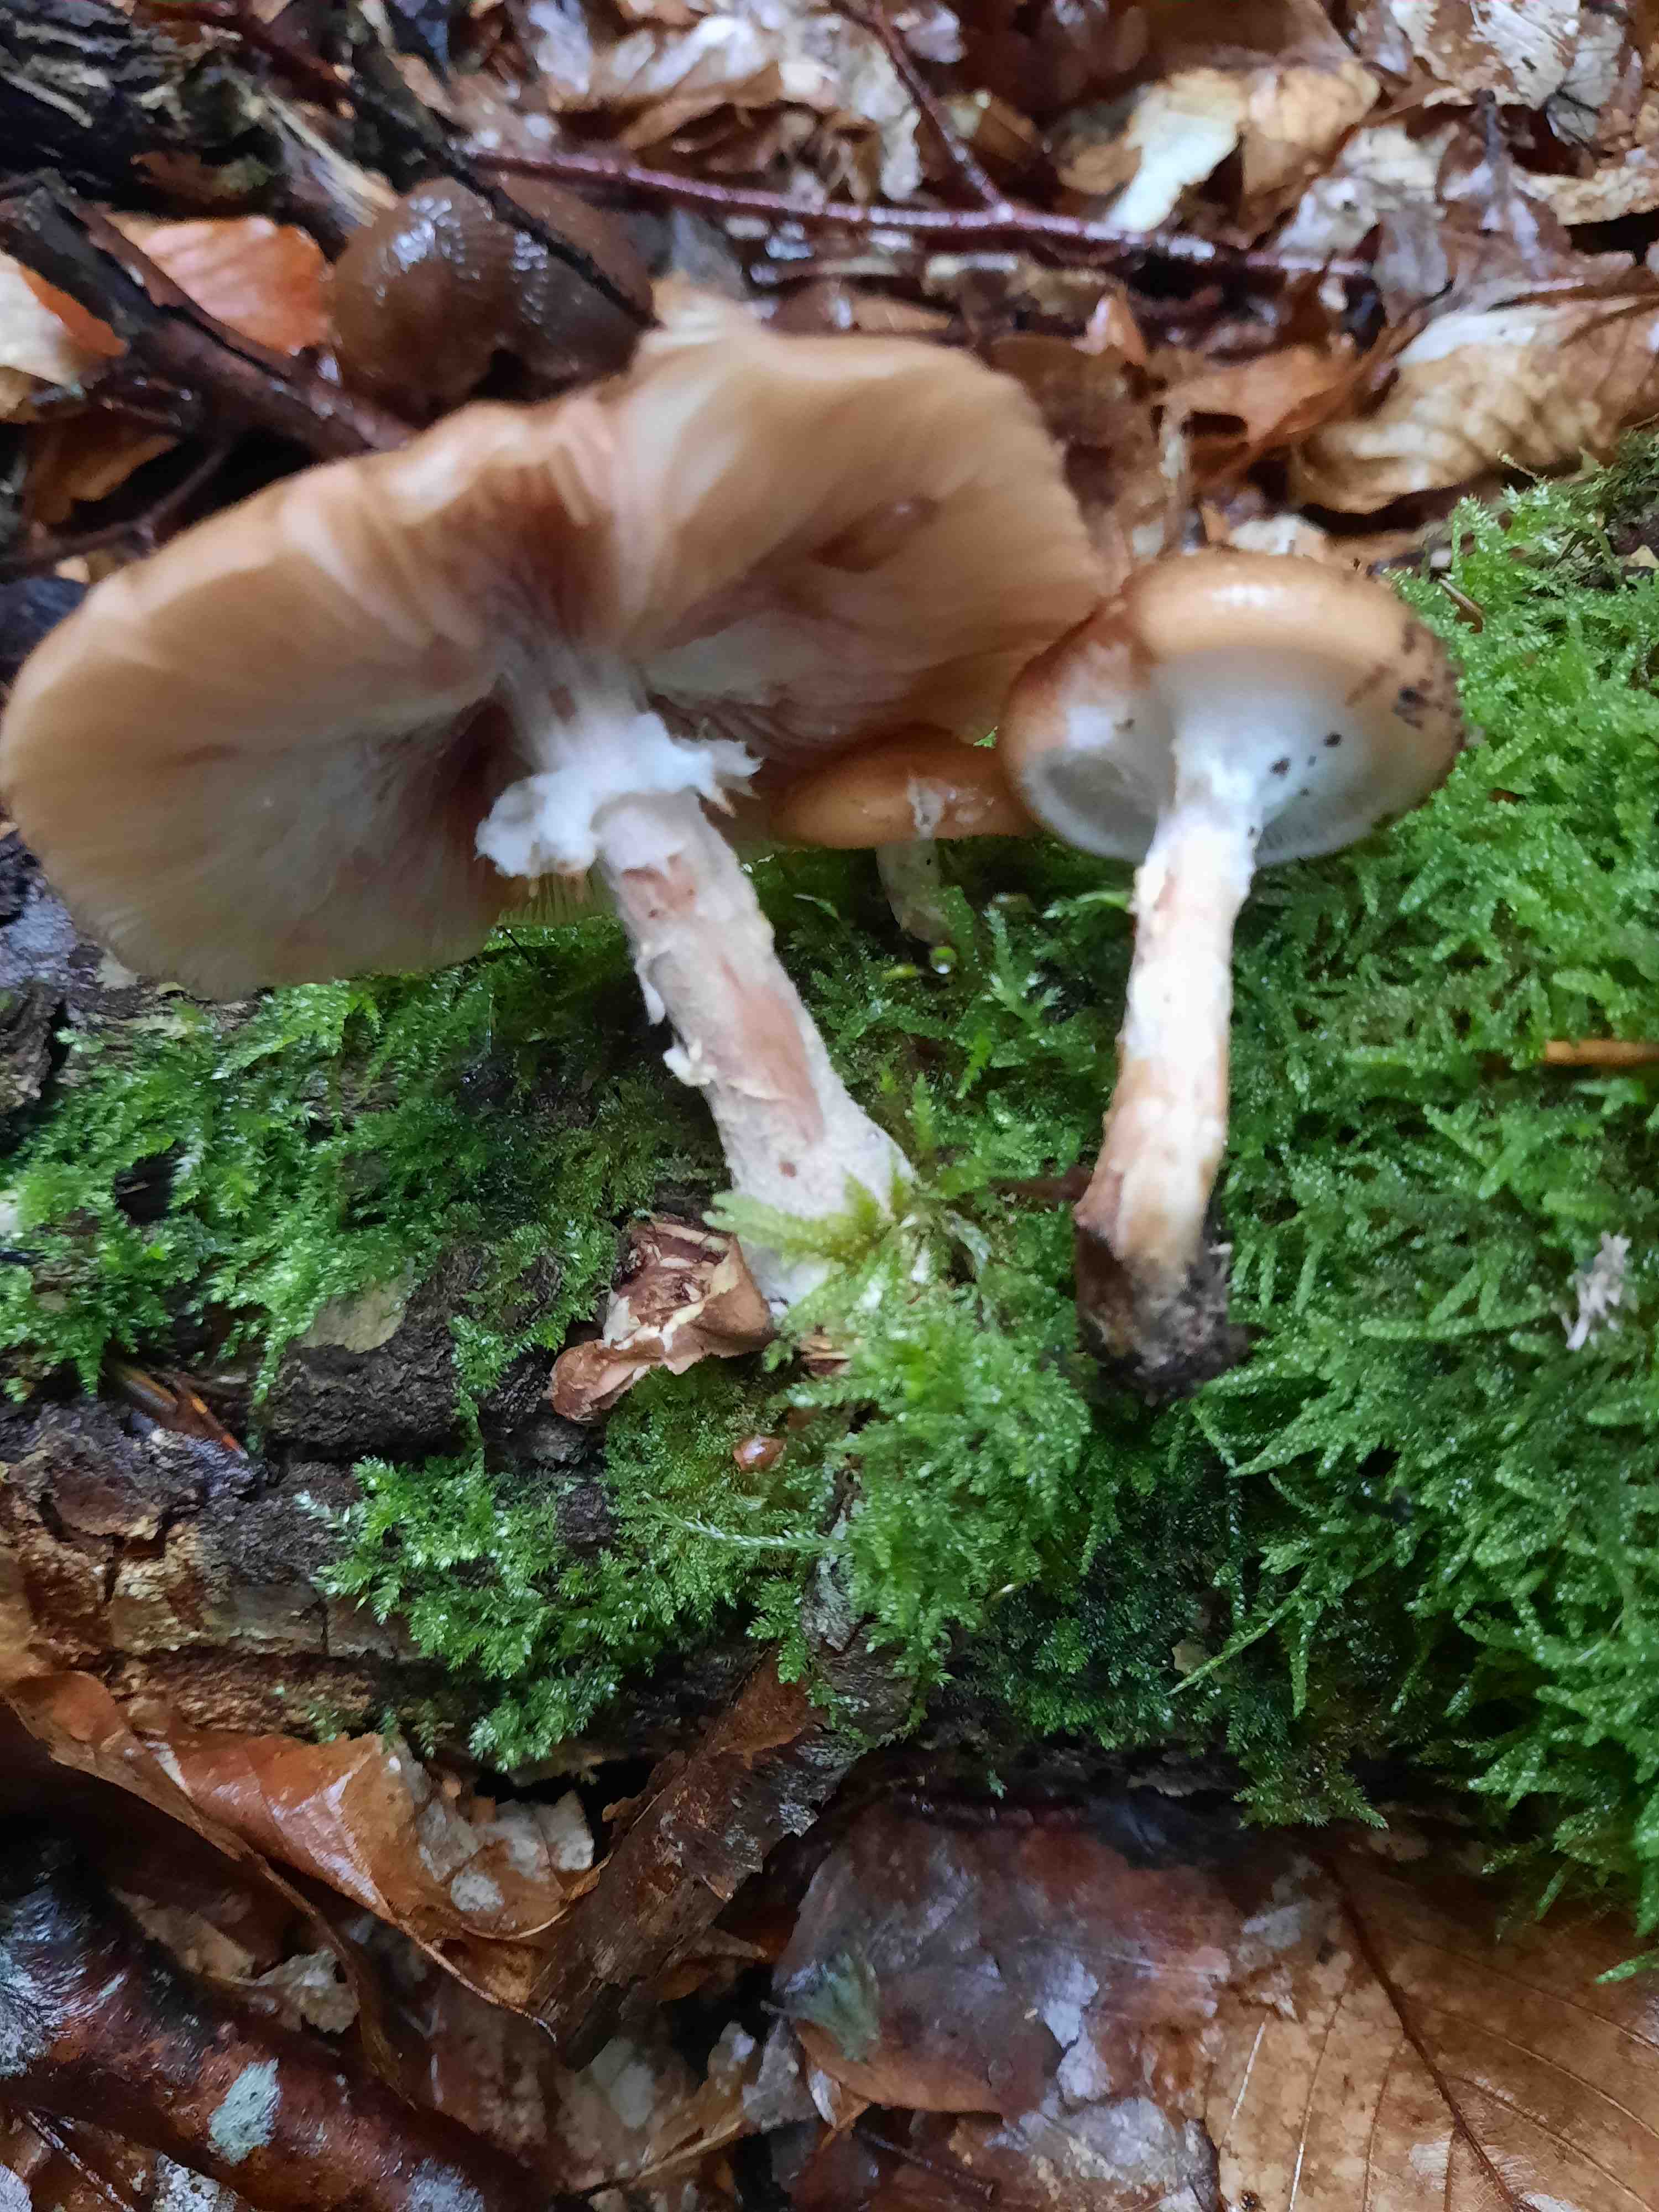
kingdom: Fungi
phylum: Basidiomycota
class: Agaricomycetes
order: Agaricales
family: Physalacriaceae
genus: Armillaria
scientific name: Armillaria lutea
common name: køllestokket honningsvamp
